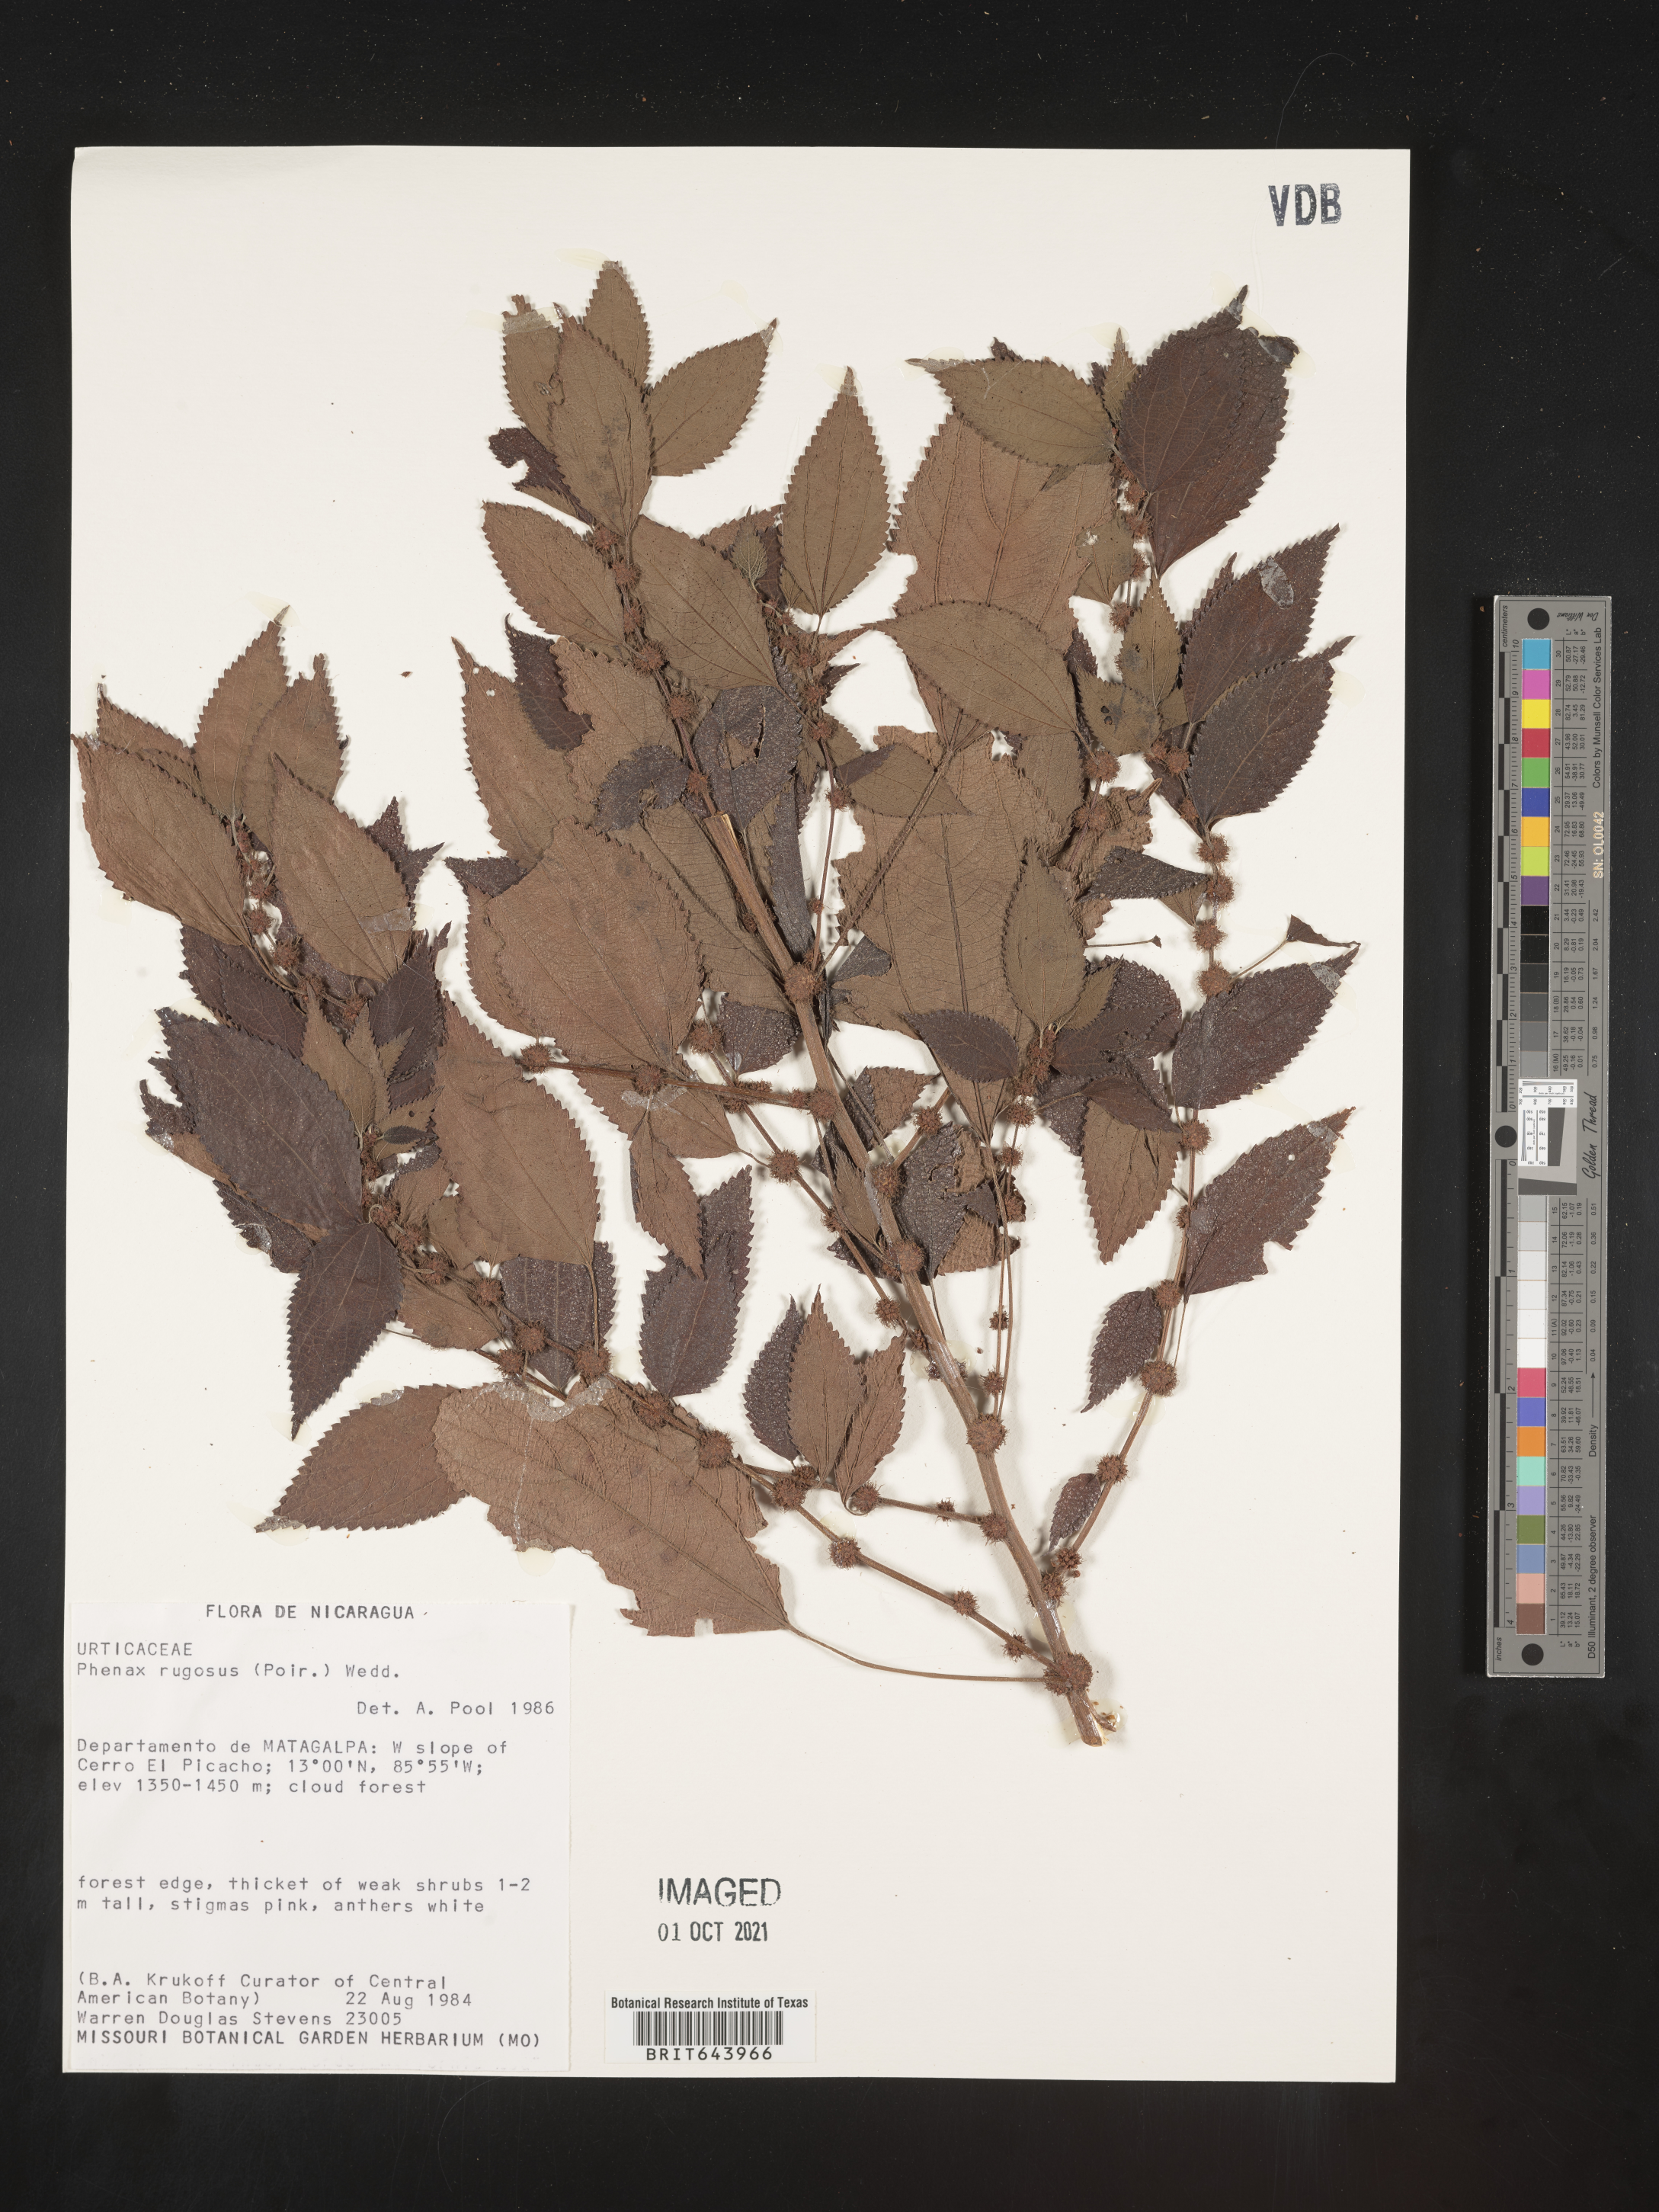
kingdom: Plantae
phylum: Tracheophyta
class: Magnoliopsida
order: Rosales
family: Urticaceae
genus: Phenax
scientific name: Phenax
